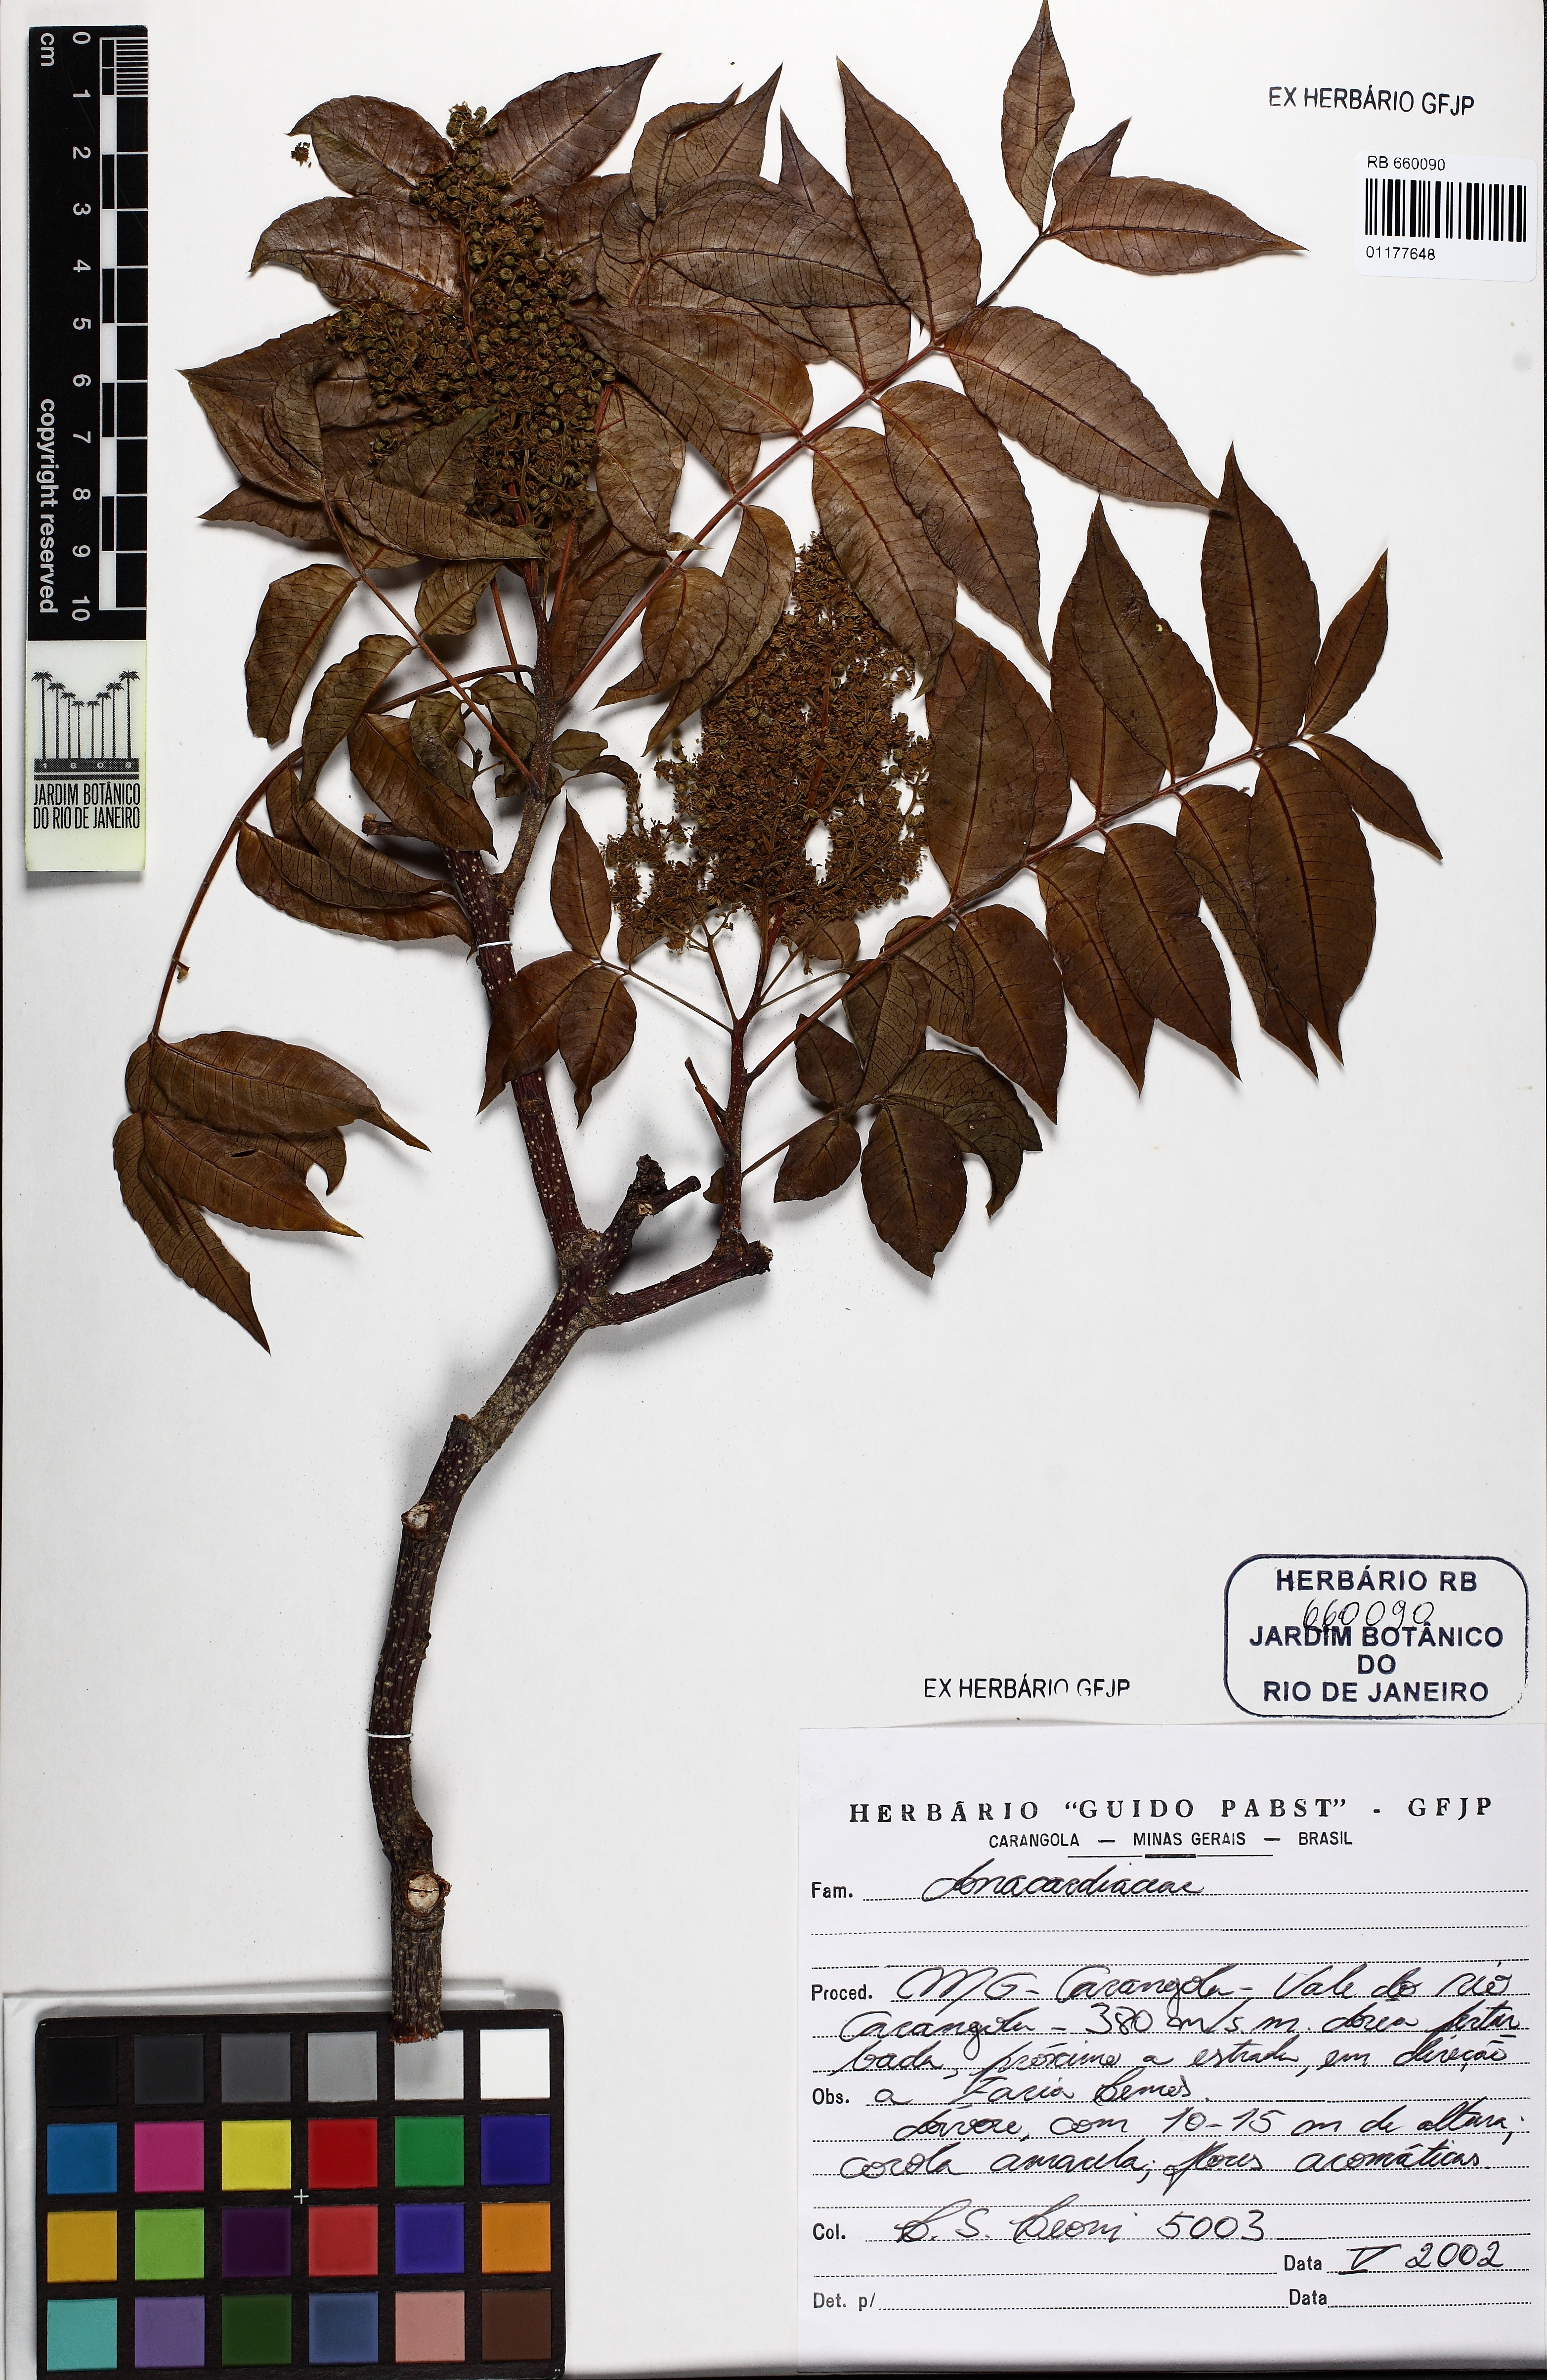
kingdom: Plantae
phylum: Tracheophyta
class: Magnoliopsida
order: Sapindales
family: Anacardiaceae
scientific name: Anacardiaceae
